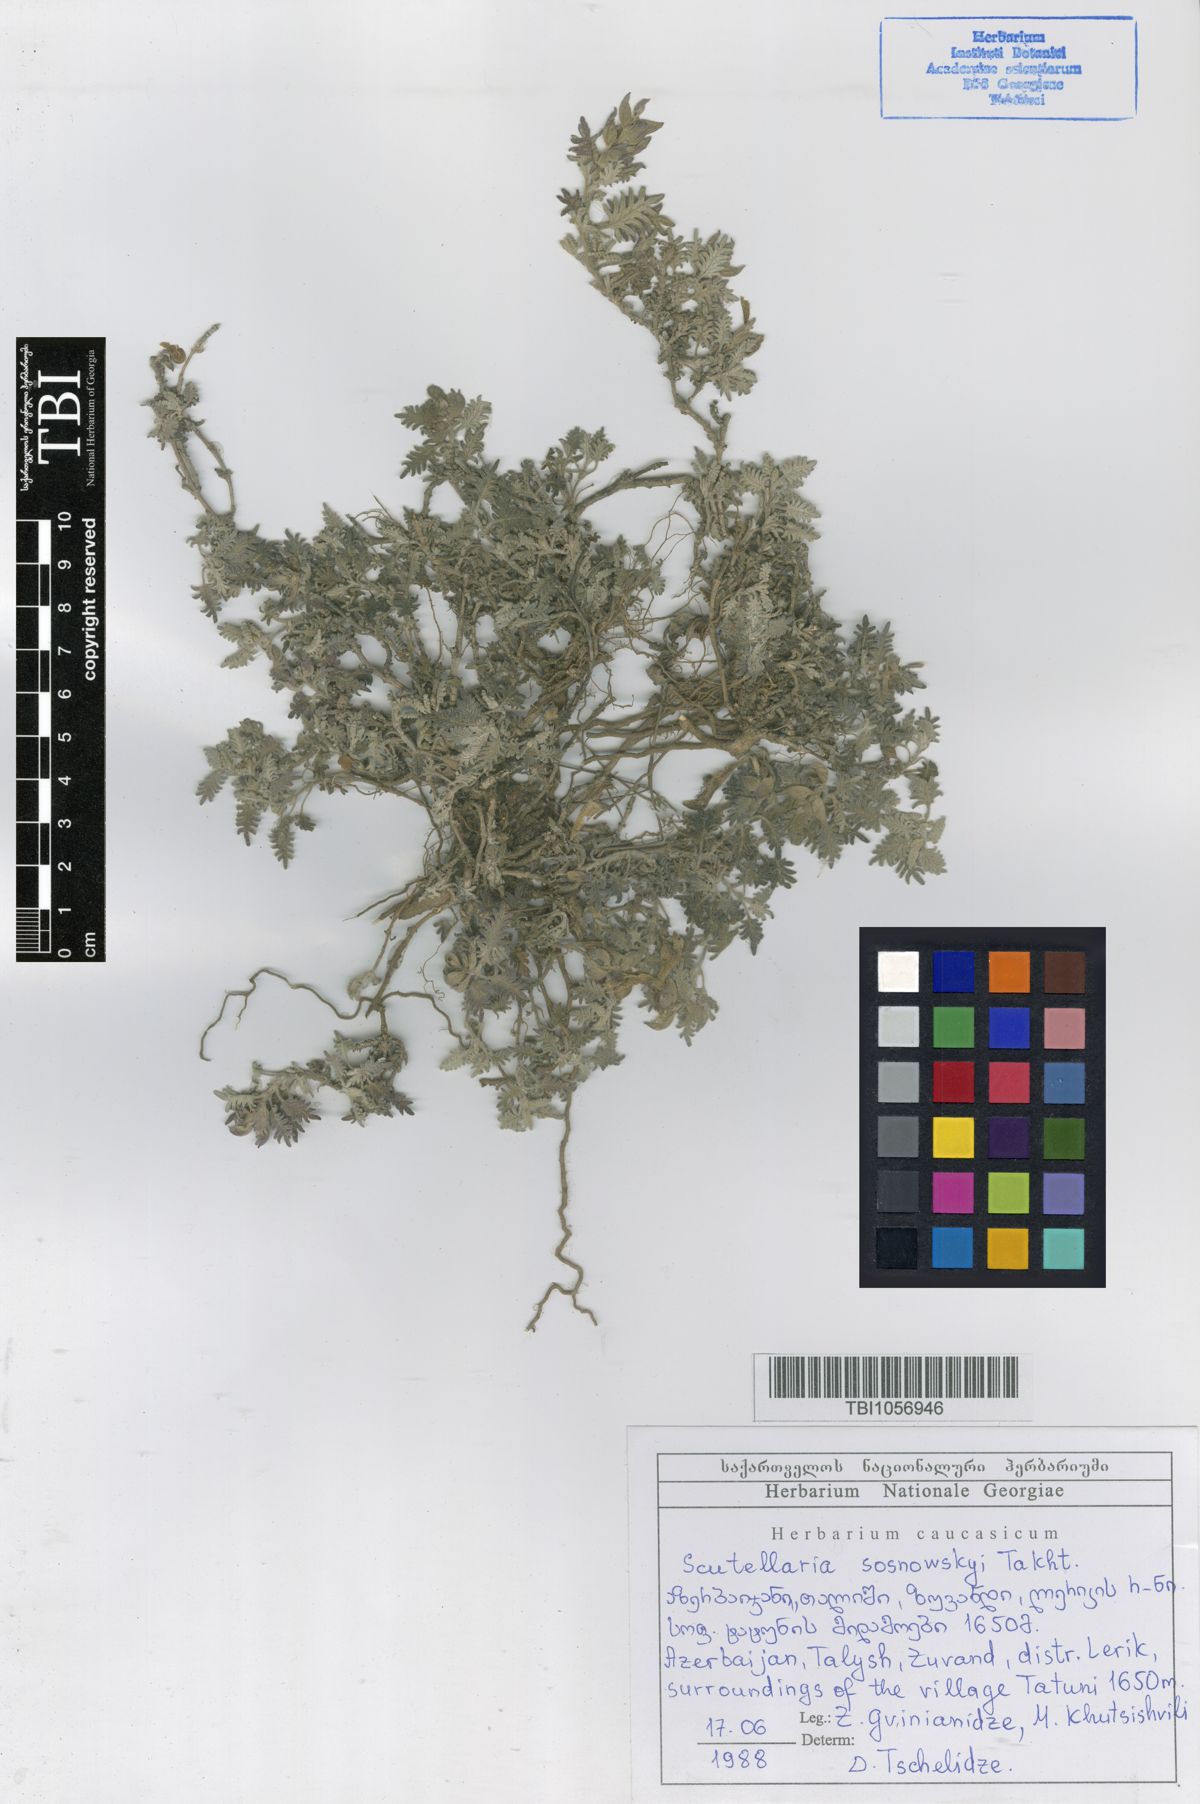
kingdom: Plantae
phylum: Tracheophyta
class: Magnoliopsida
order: Lamiales
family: Lamiaceae
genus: Scutellaria
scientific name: Scutellaria sosnowskyi
